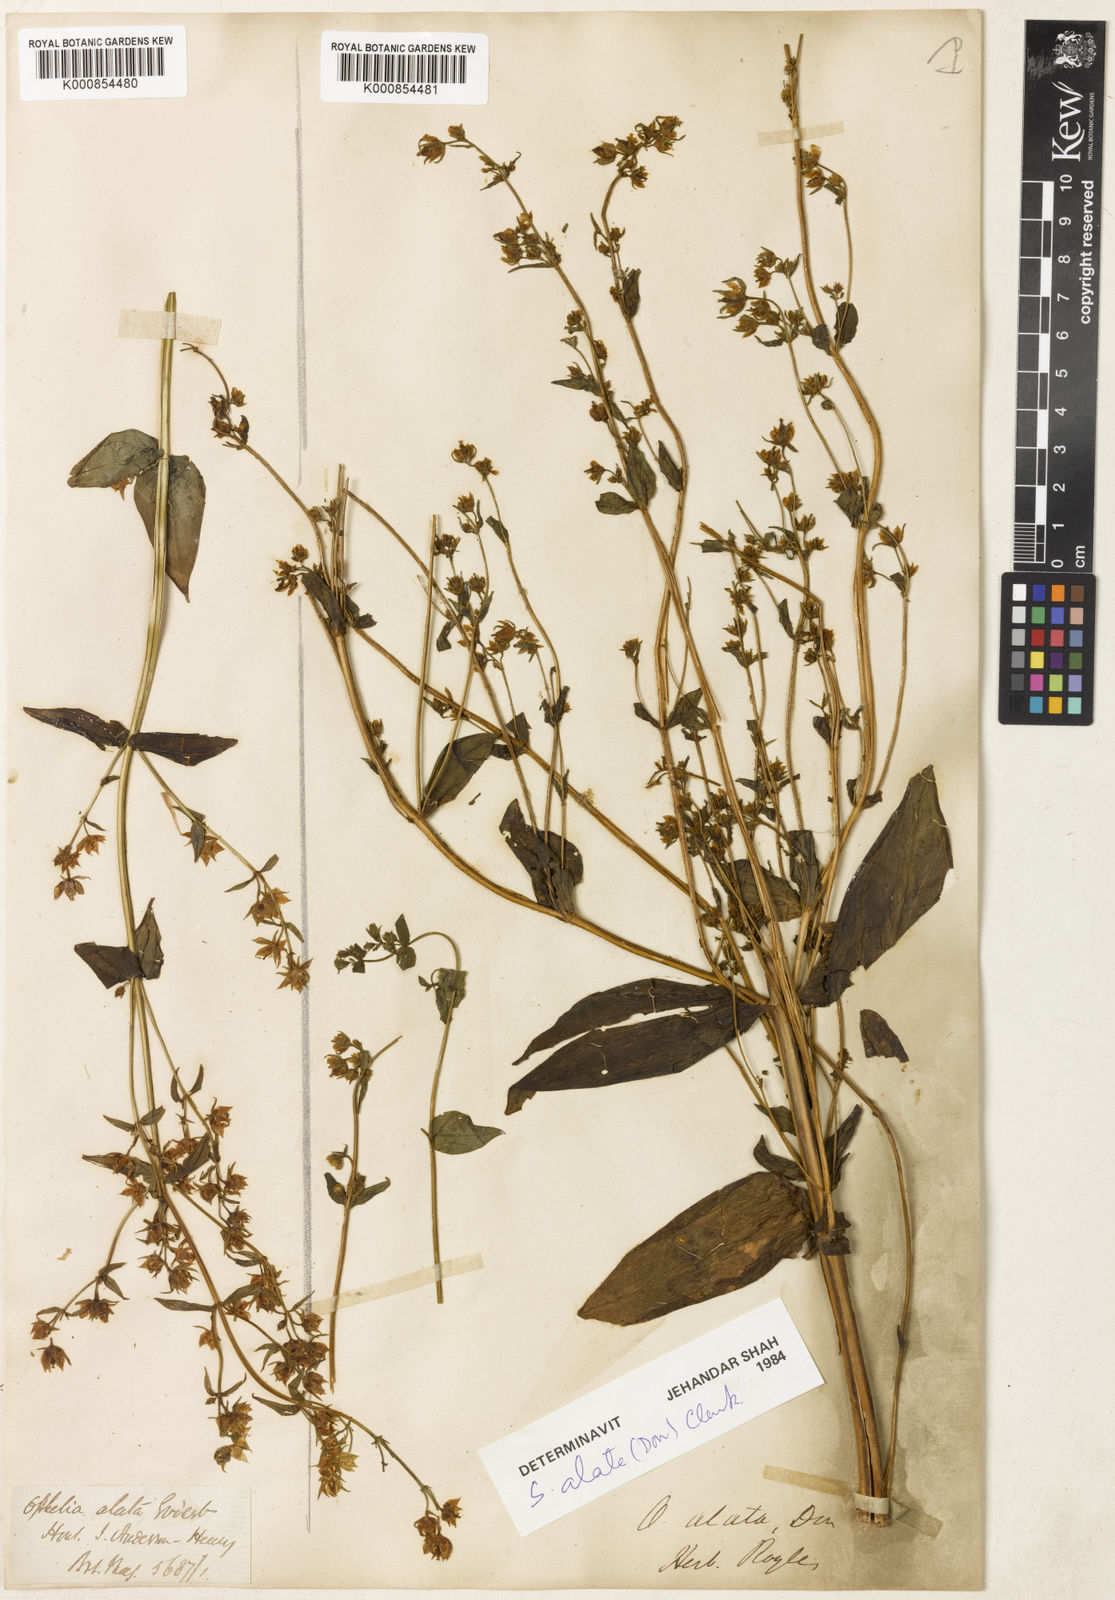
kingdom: Plantae
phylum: Tracheophyta
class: Magnoliopsida
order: Gentianales
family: Gentianaceae
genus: Swertia
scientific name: Swertia arisanensis
